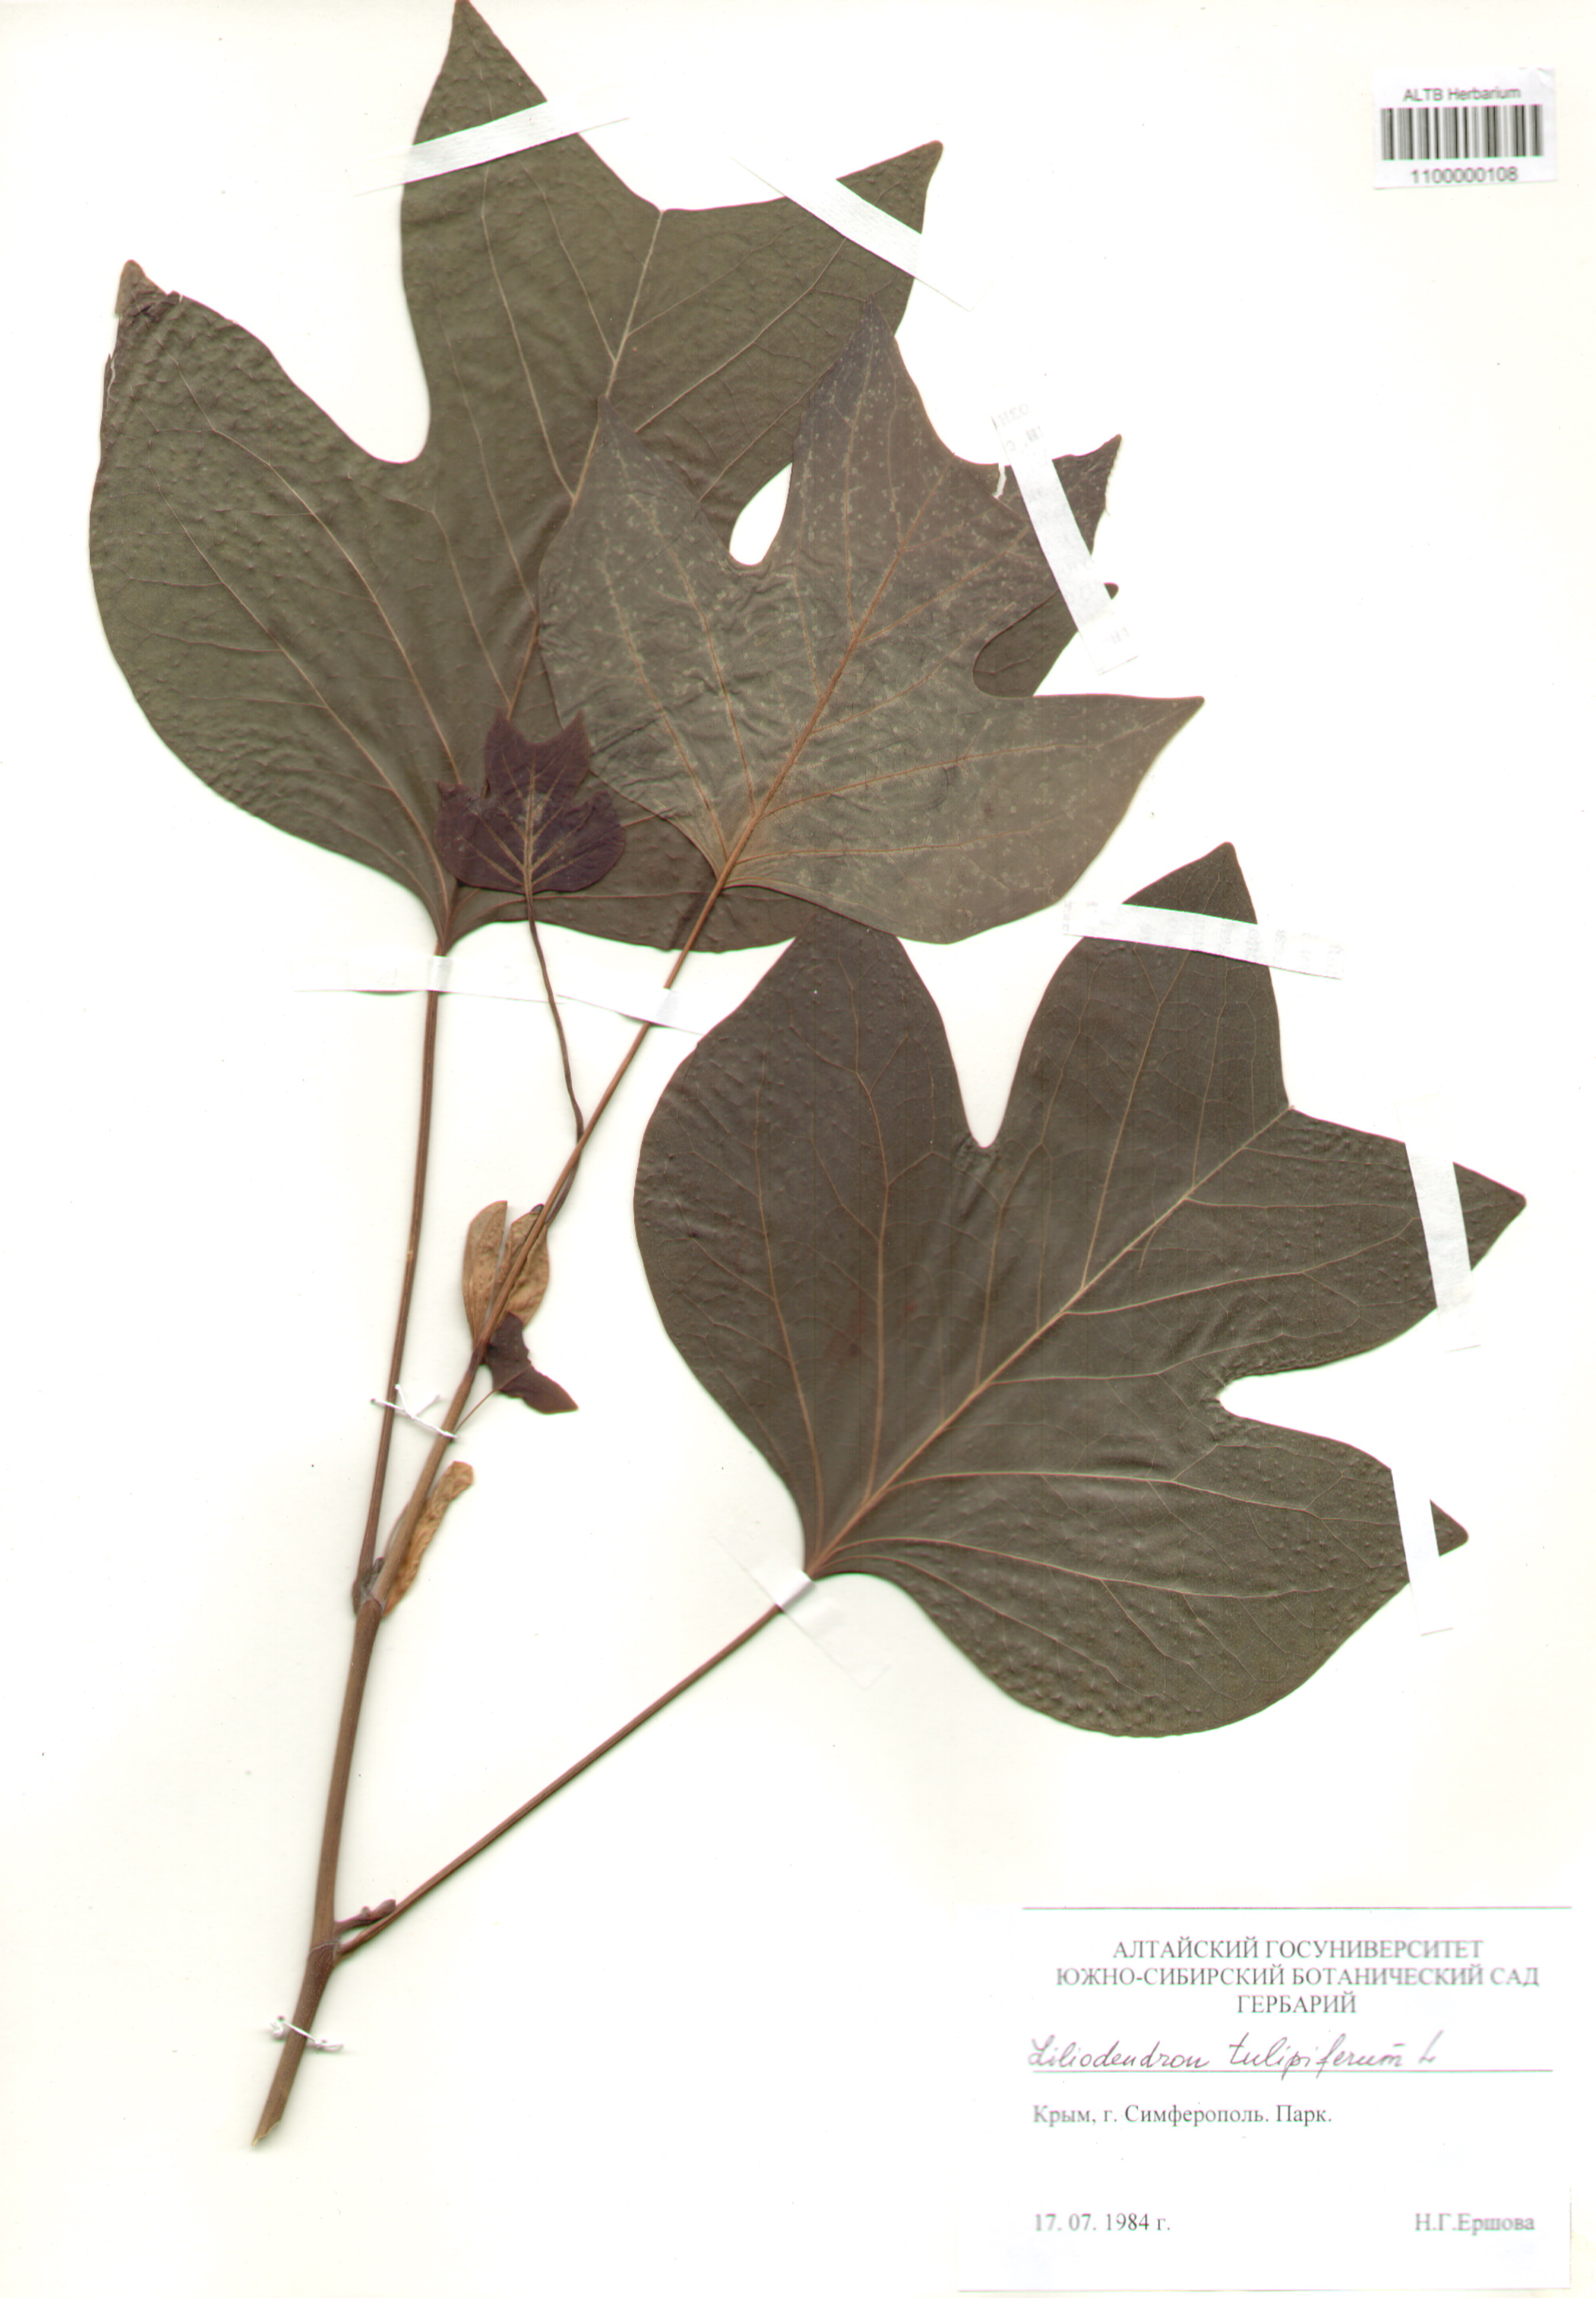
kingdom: Plantae
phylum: Tracheophyta
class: Magnoliopsida
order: Magnoliales
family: Magnoliaceae
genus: Liriodendron
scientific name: Liriodendron tulipifera
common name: Tulip tree
